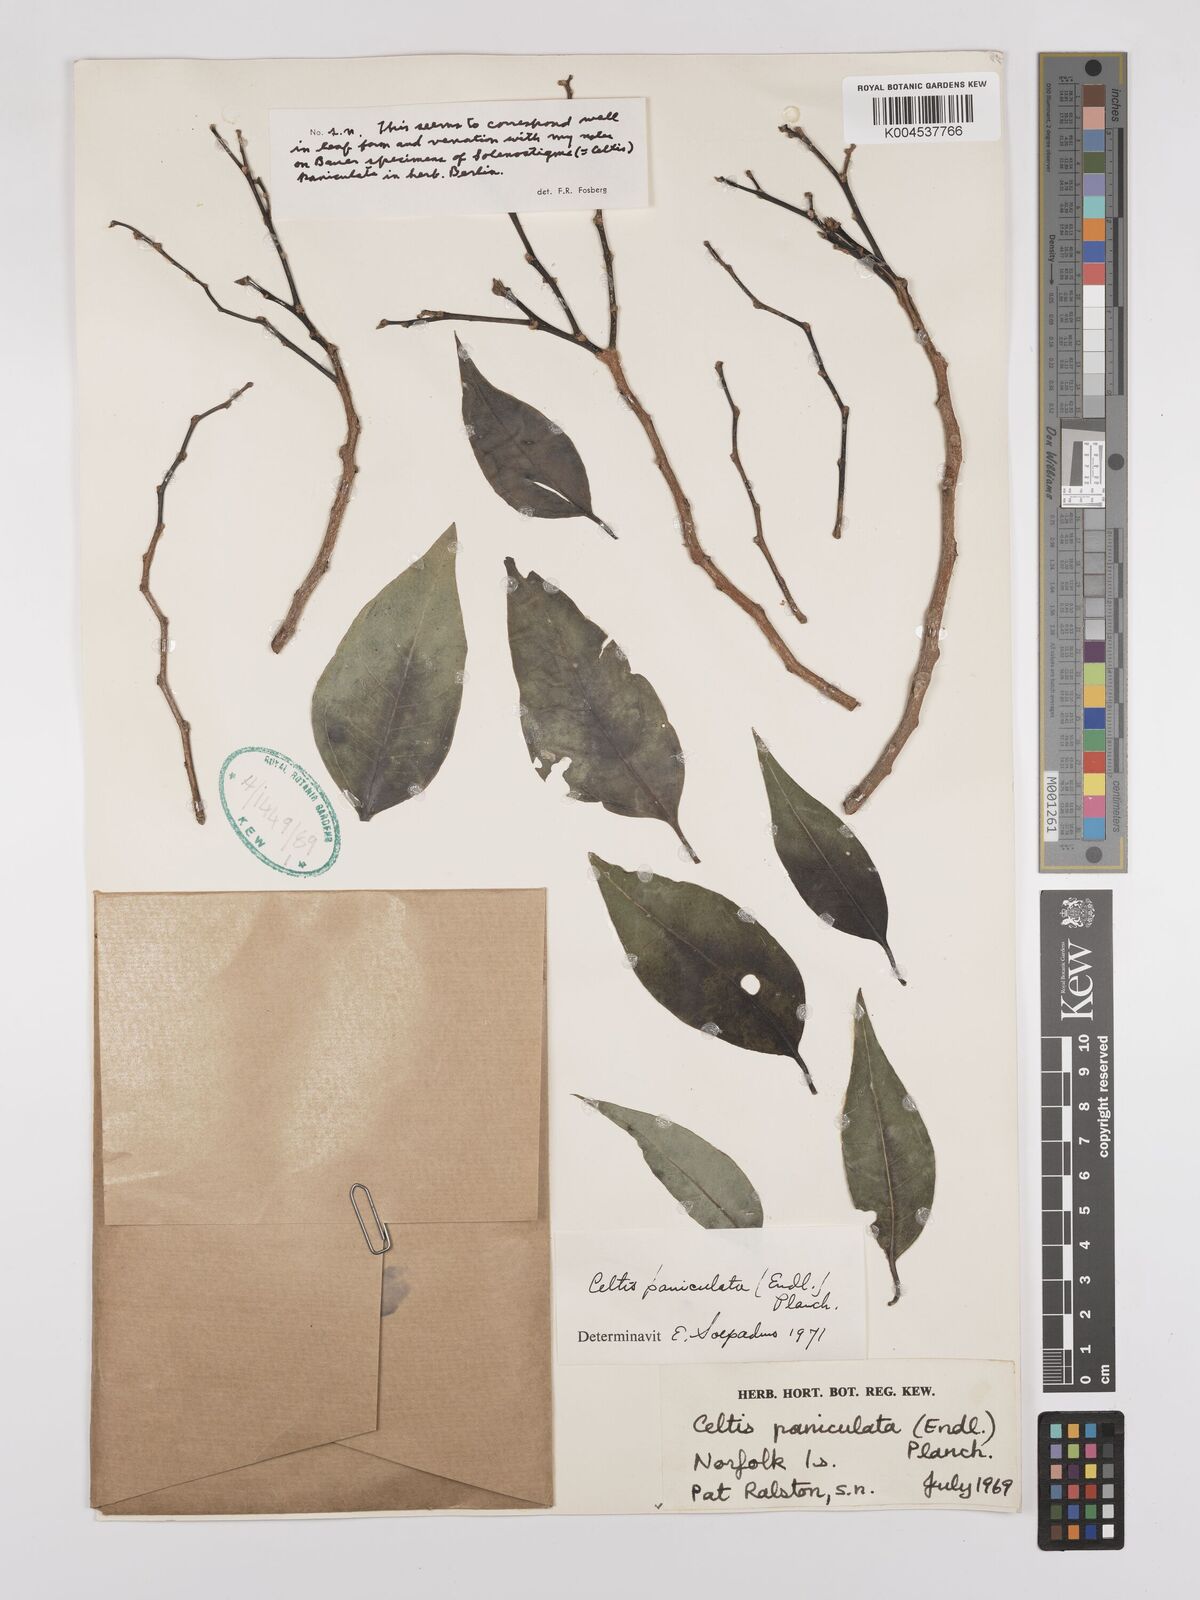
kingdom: Plantae
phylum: Tracheophyta
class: Magnoliopsida
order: Rosales
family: Cannabaceae
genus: Celtis
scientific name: Celtis paniculata
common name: Silky celtis
